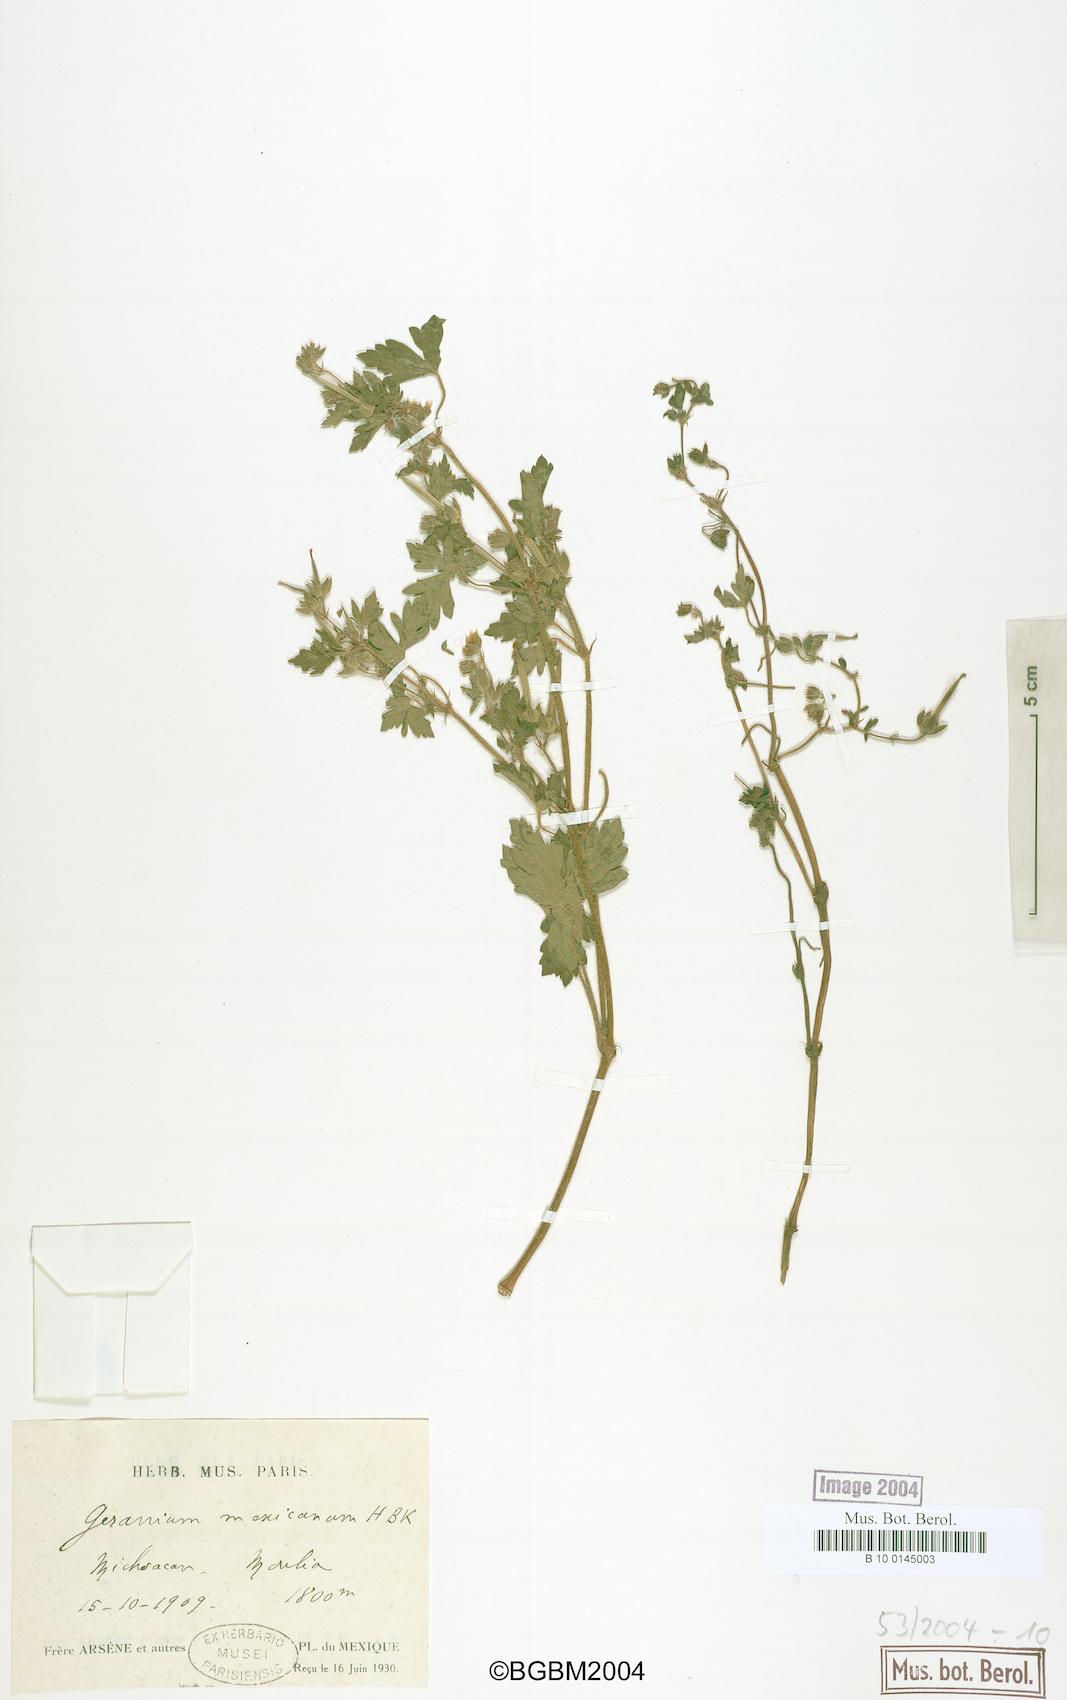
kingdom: Plantae
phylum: Tracheophyta
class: Magnoliopsida
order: Geraniales
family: Geraniaceae
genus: Geranium
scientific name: Geranium seemannii
